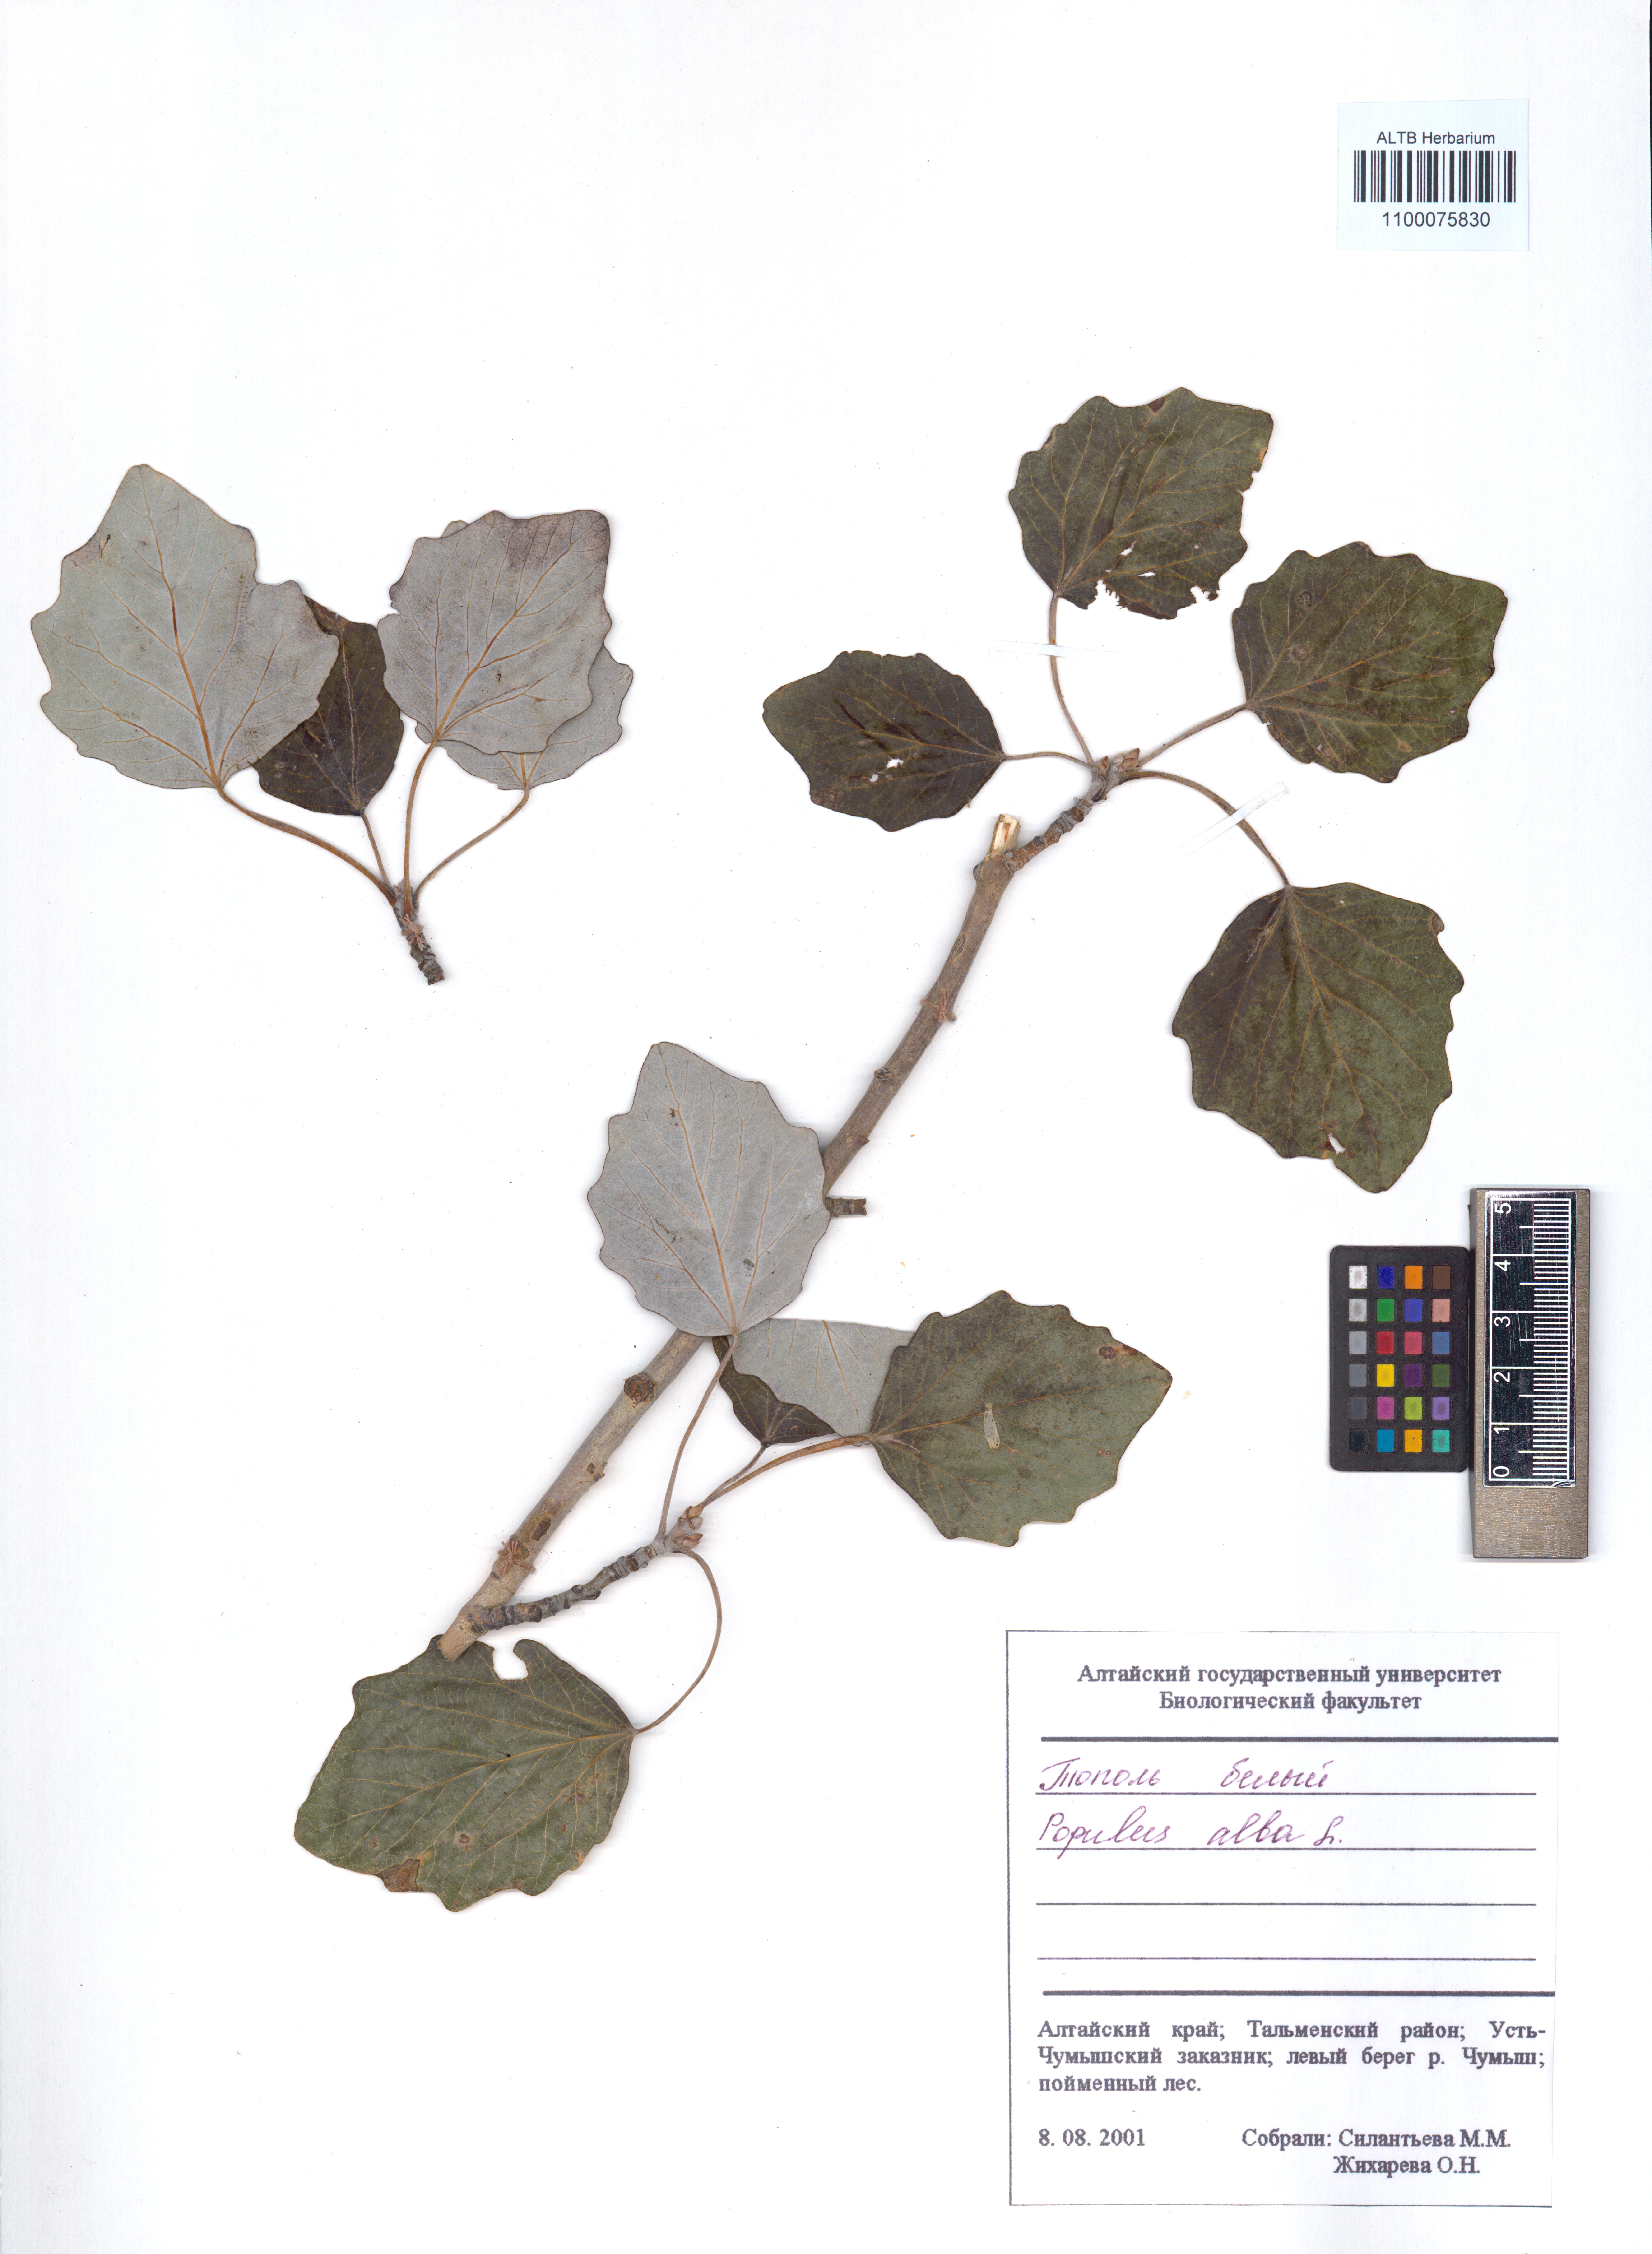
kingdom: Plantae
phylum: Tracheophyta
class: Magnoliopsida
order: Malpighiales
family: Salicaceae
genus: Populus
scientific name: Populus alba
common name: White poplar
